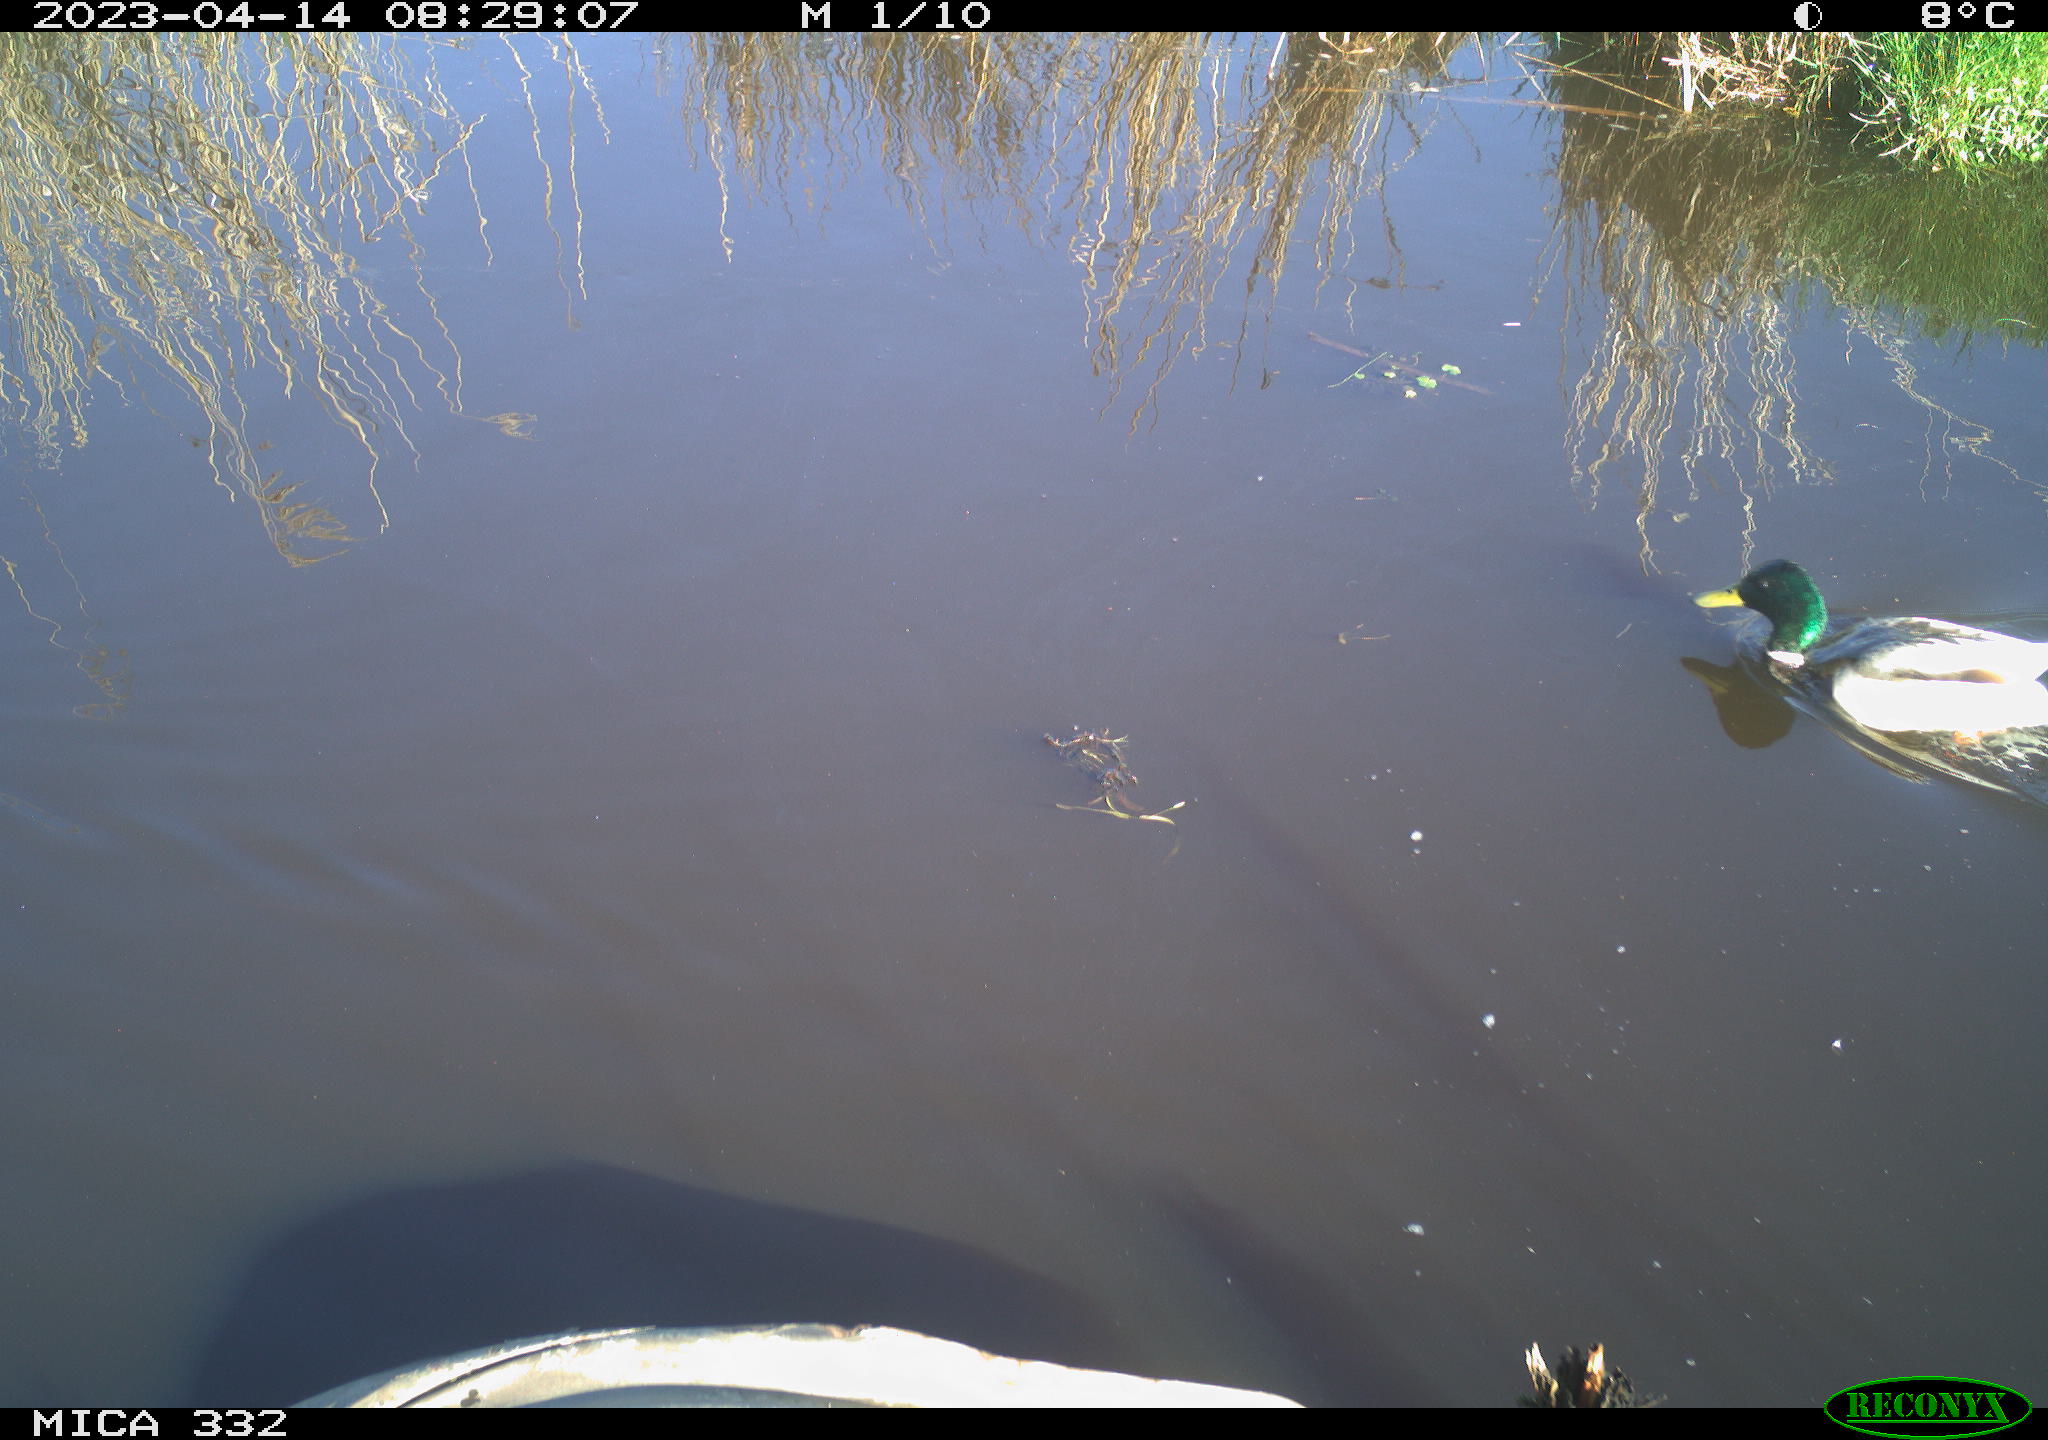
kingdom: Animalia
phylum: Chordata
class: Aves
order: Anseriformes
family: Anatidae
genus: Anas
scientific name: Anas
